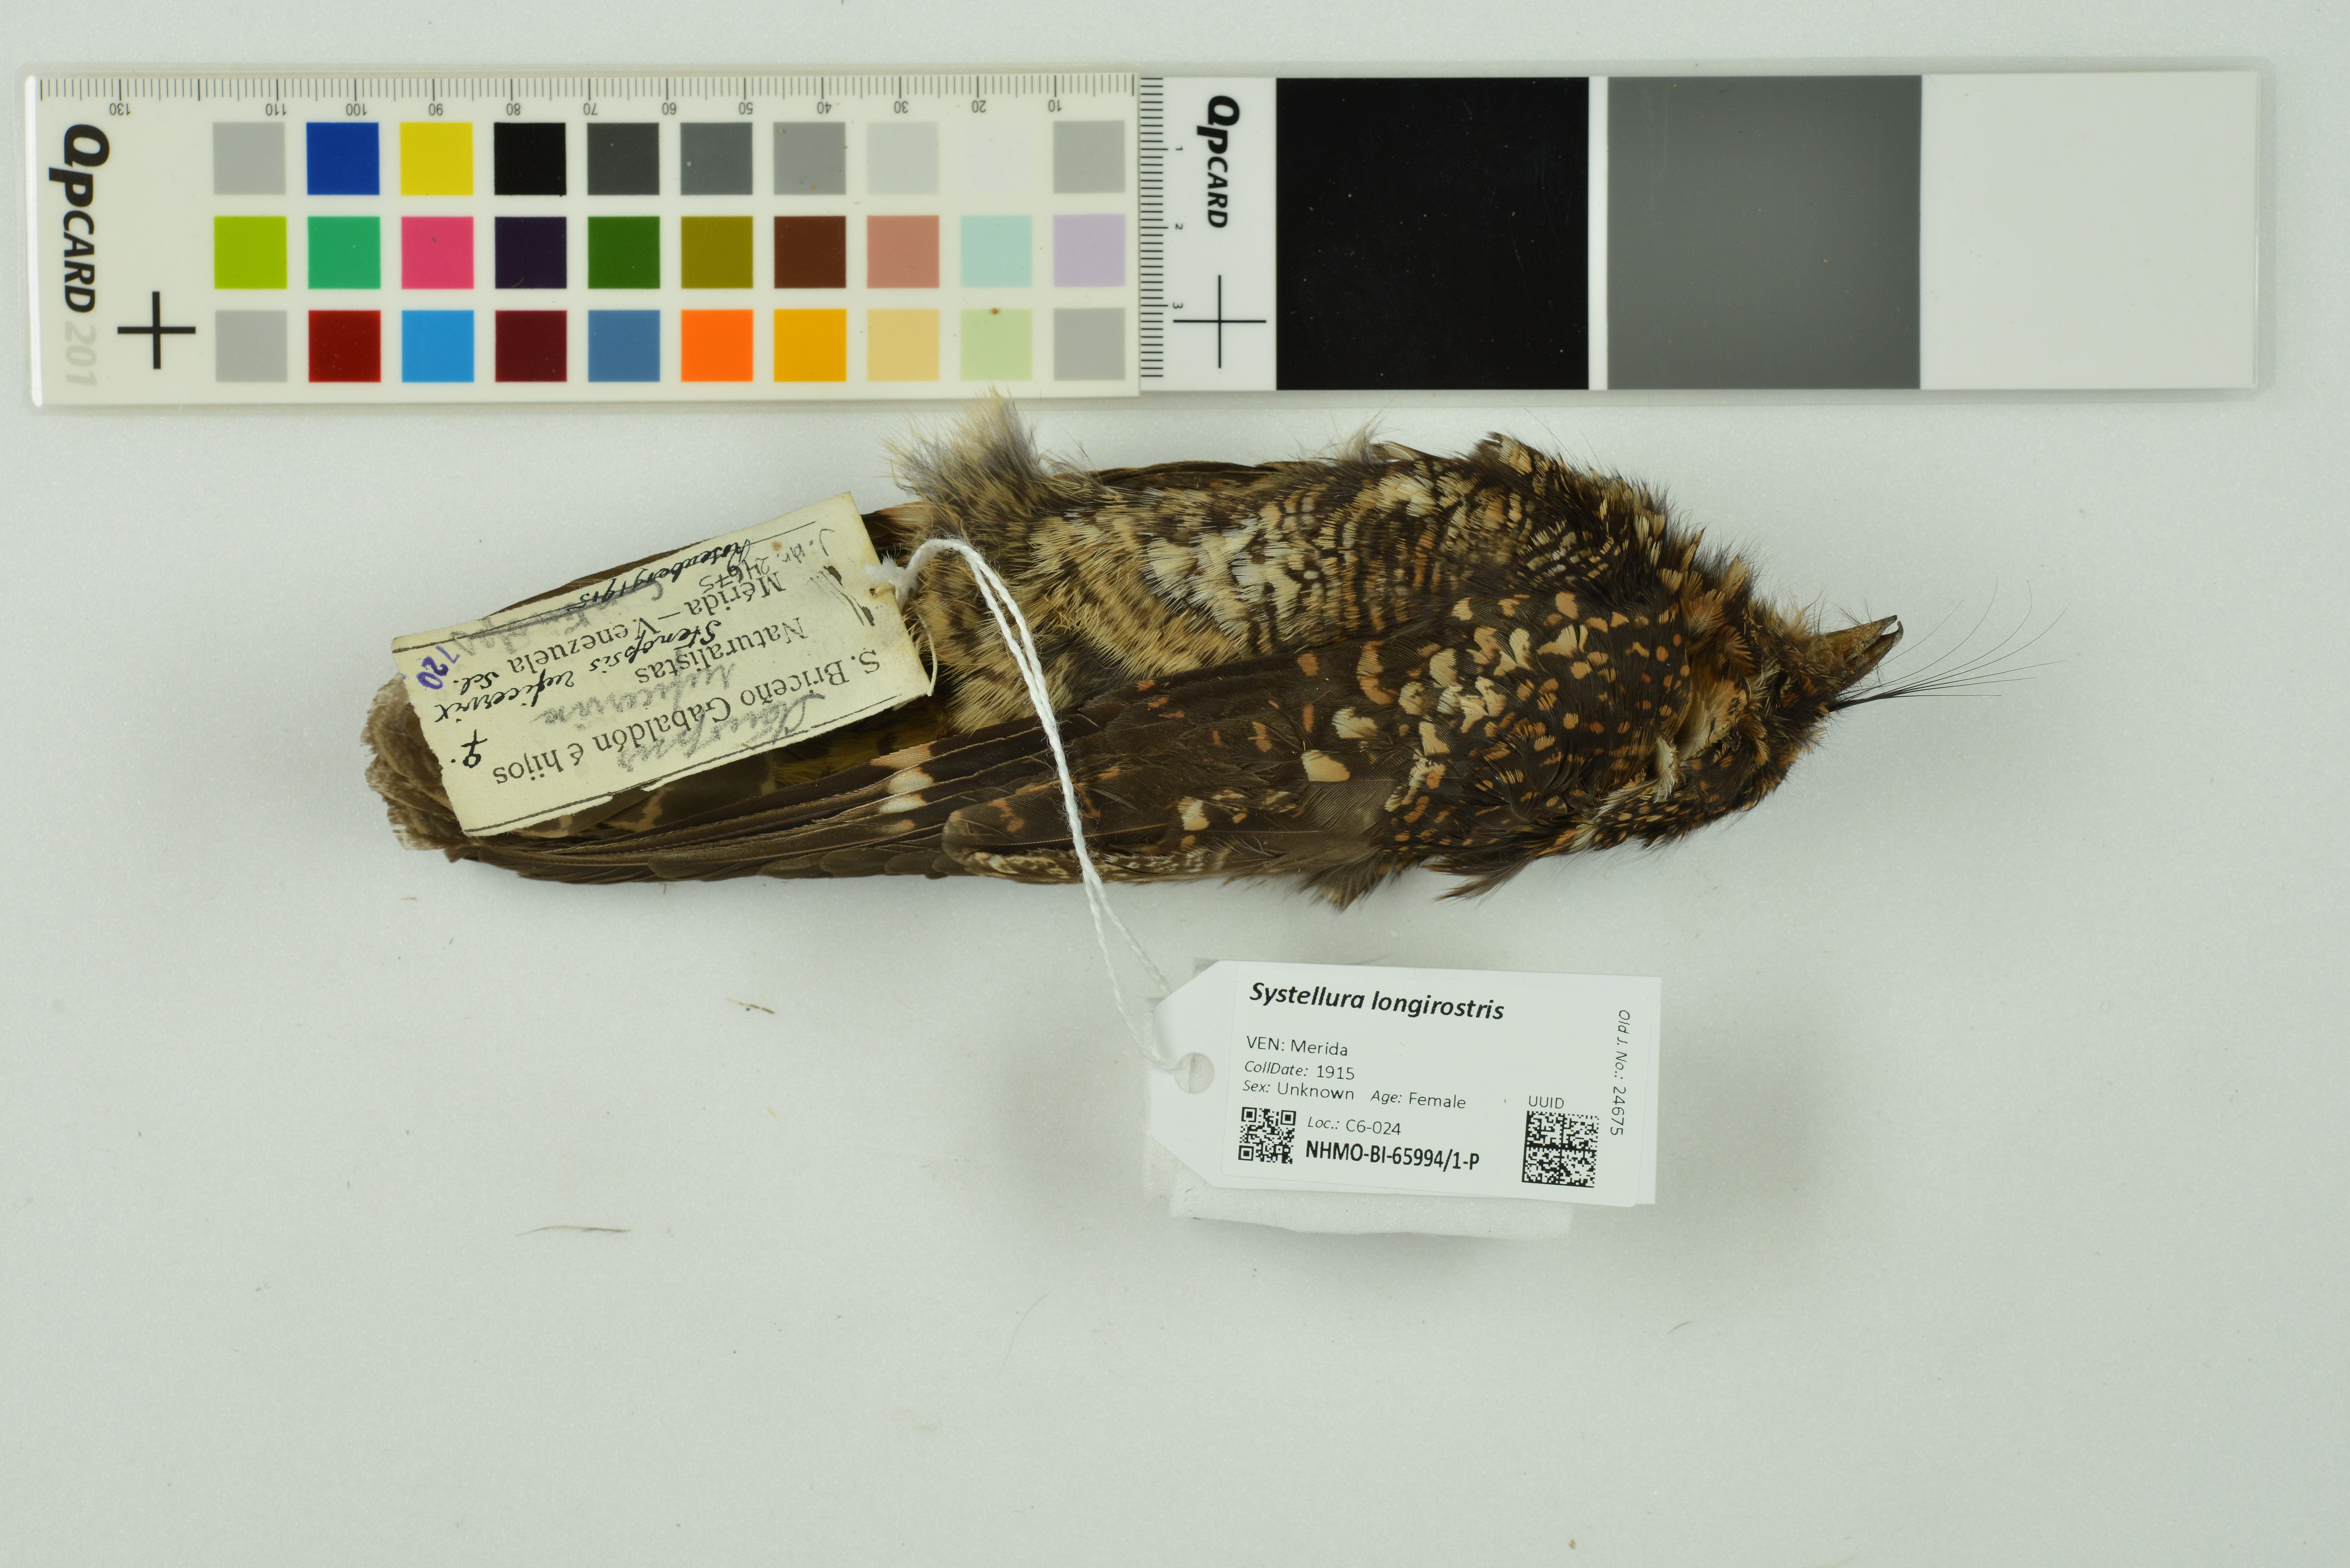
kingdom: Animalia
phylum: Chordata
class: Aves
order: Caprimulgiformes
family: Caprimulgidae
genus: Systellura
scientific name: Systellura longirostris
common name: Band-winged nightjar
